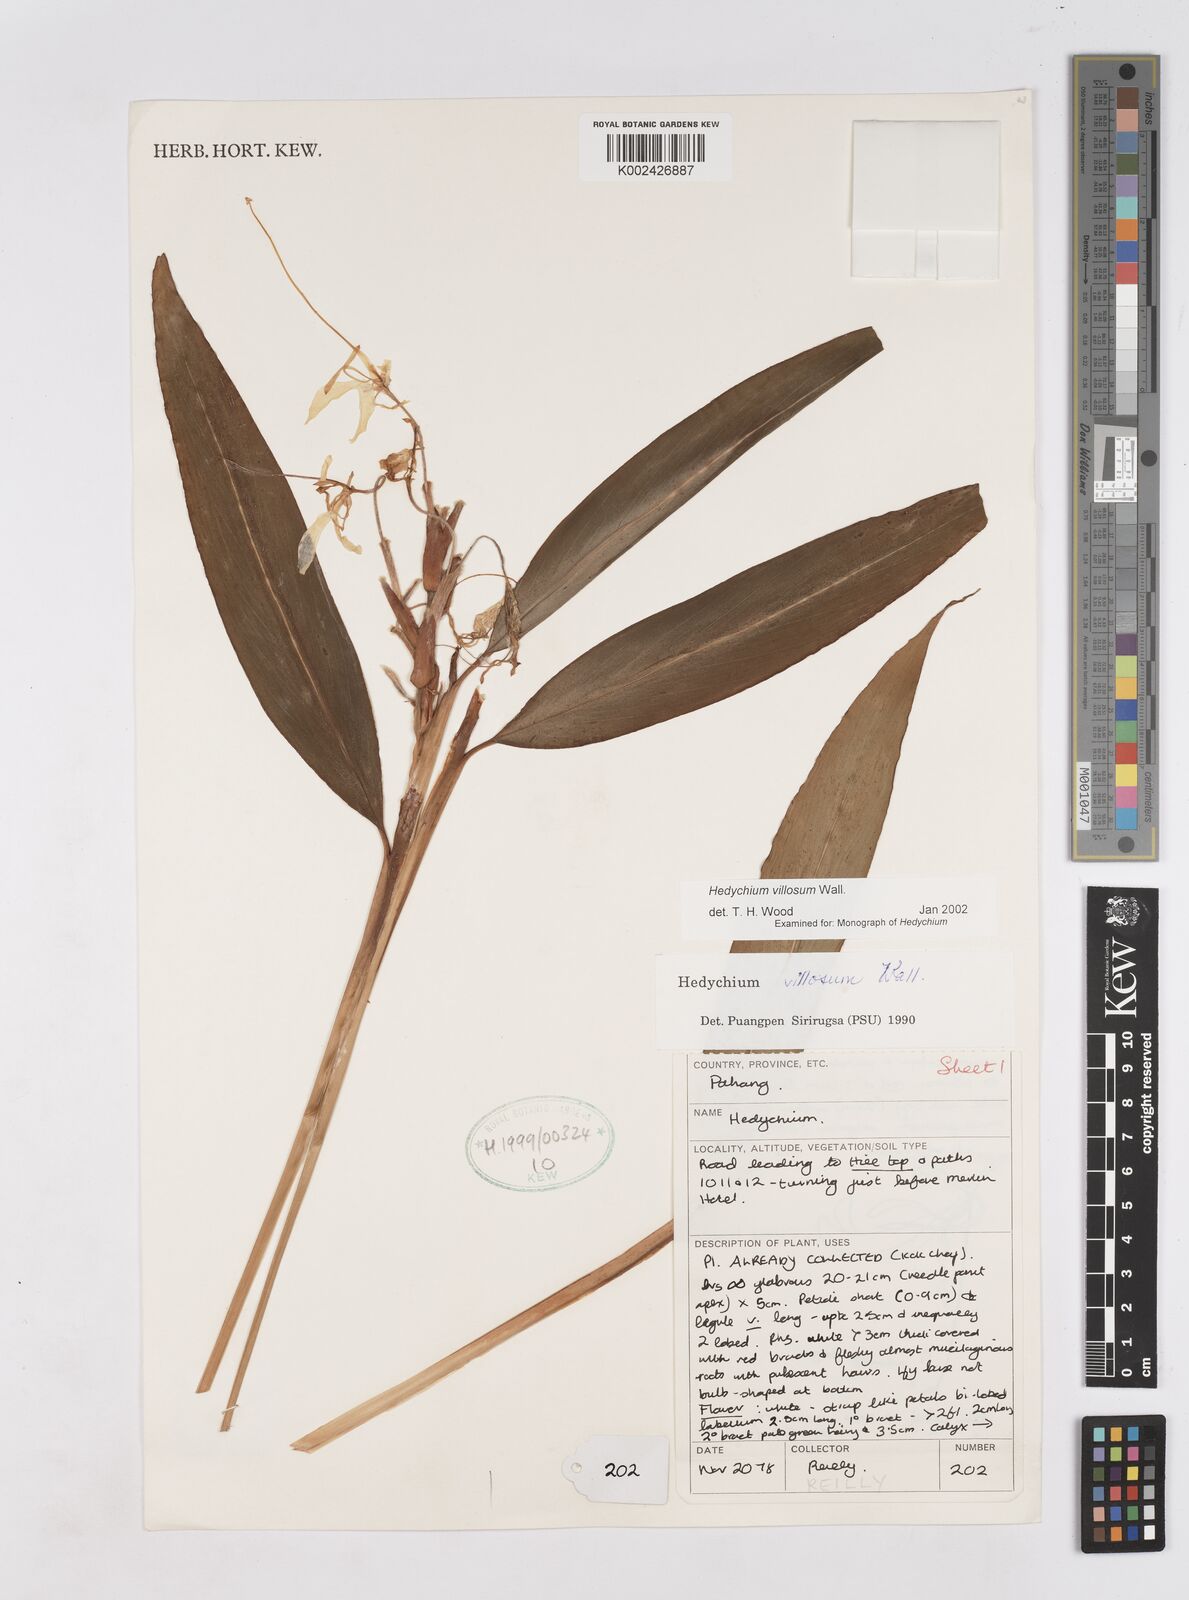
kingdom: Plantae
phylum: Tracheophyta
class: Liliopsida
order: Zingiberales
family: Zingiberaceae
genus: Hedychium
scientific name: Hedychium villosum
